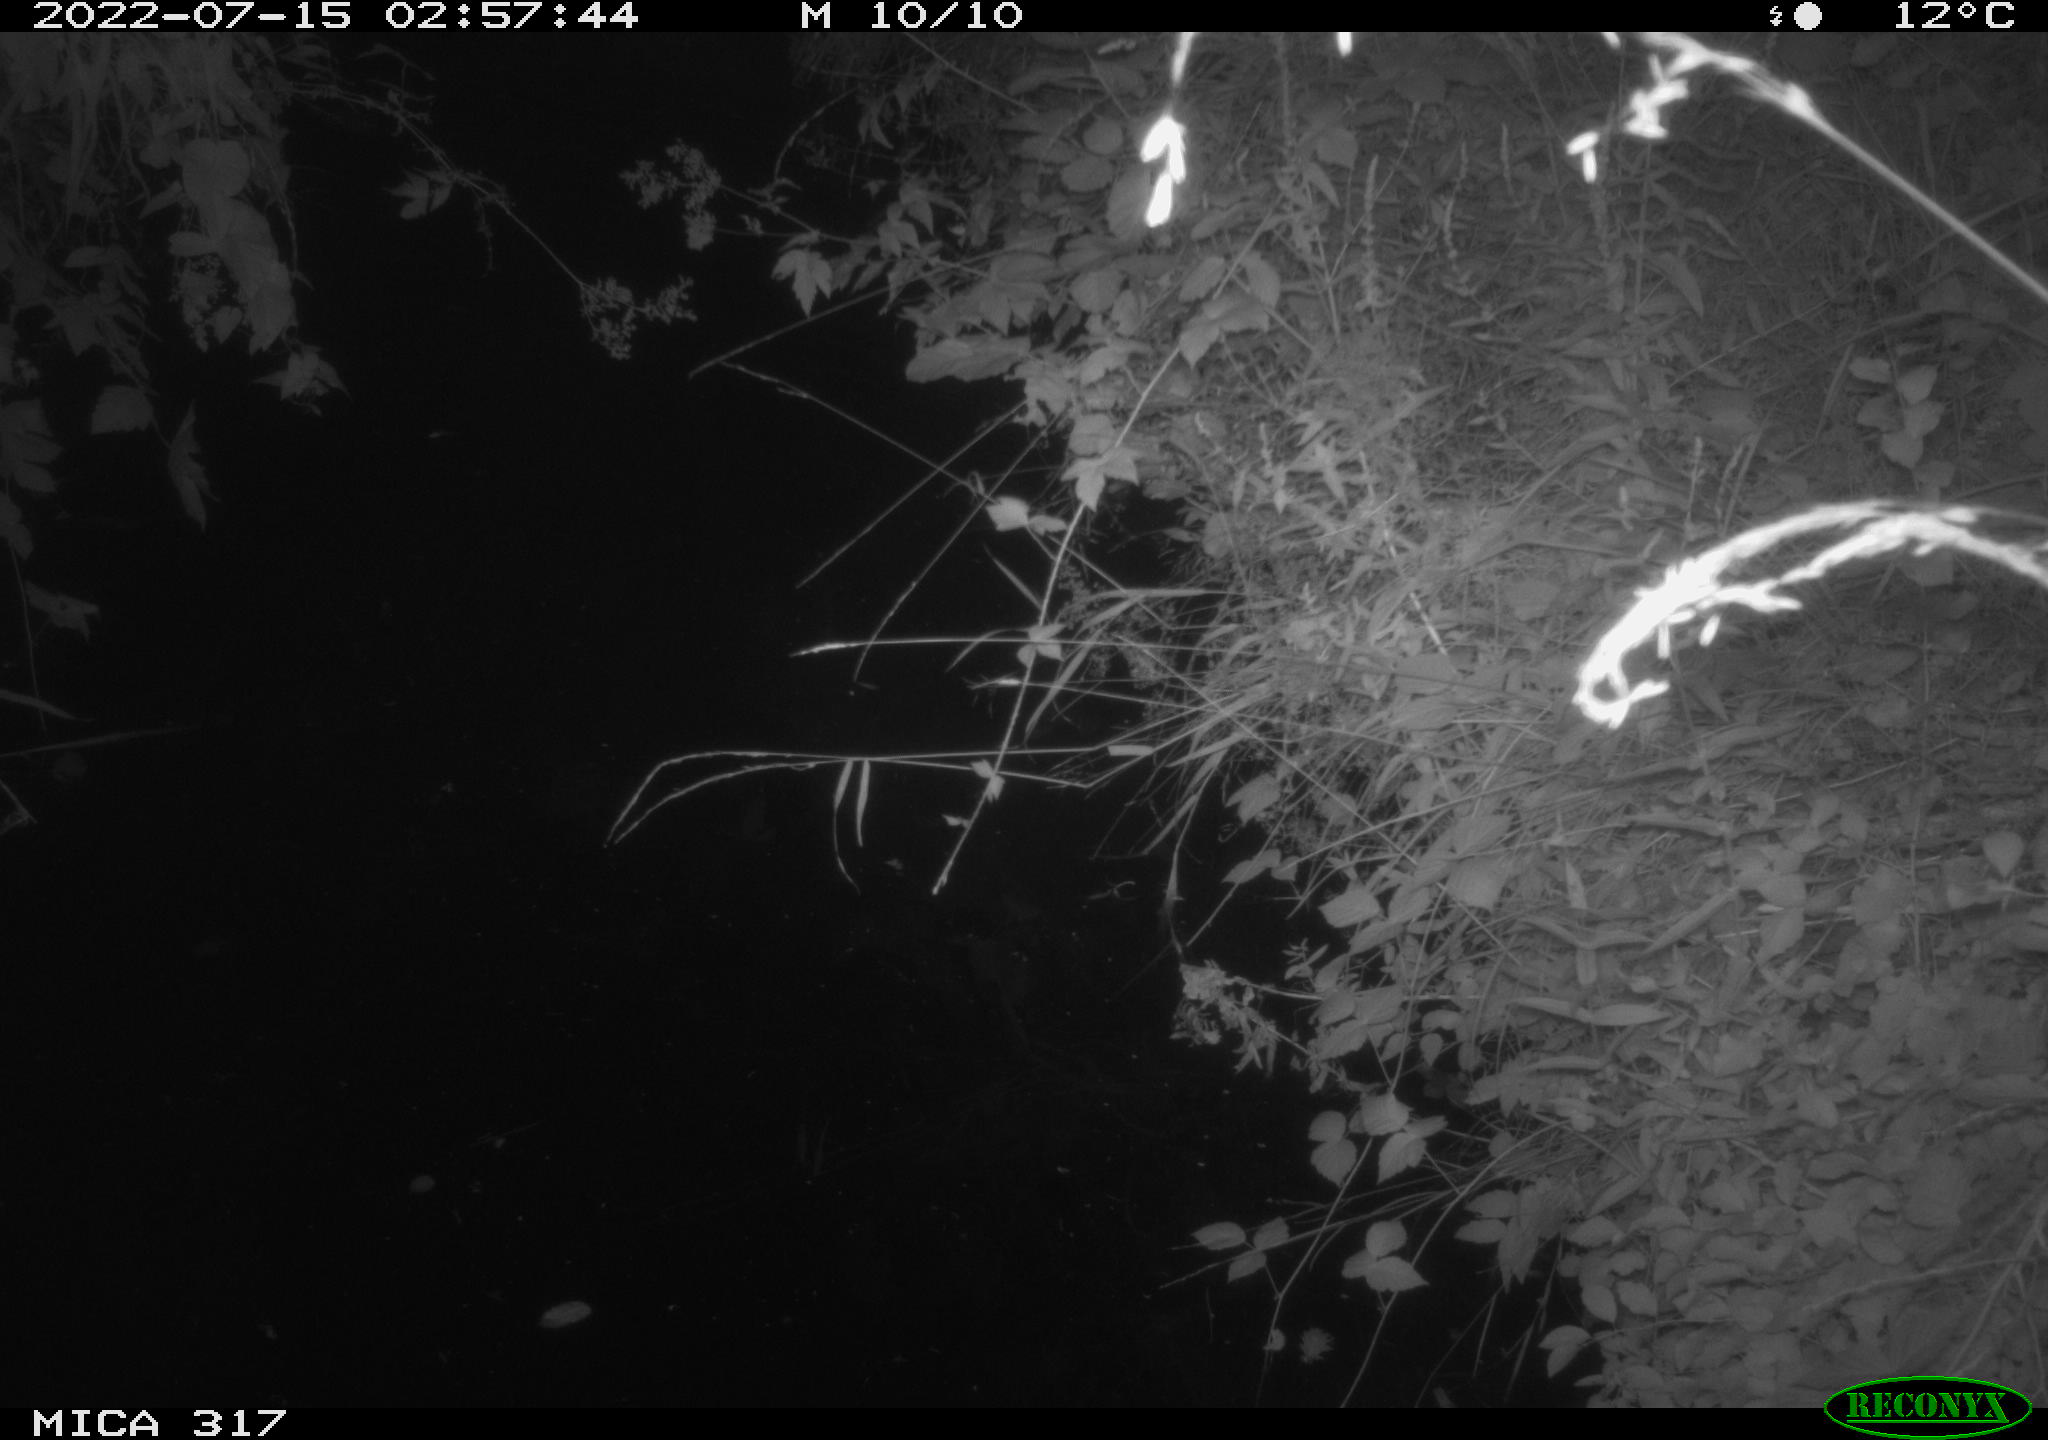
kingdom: Animalia
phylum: Chordata
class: Aves
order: Anseriformes
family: Anatidae
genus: Anas
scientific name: Anas platyrhynchos
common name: Mallard
